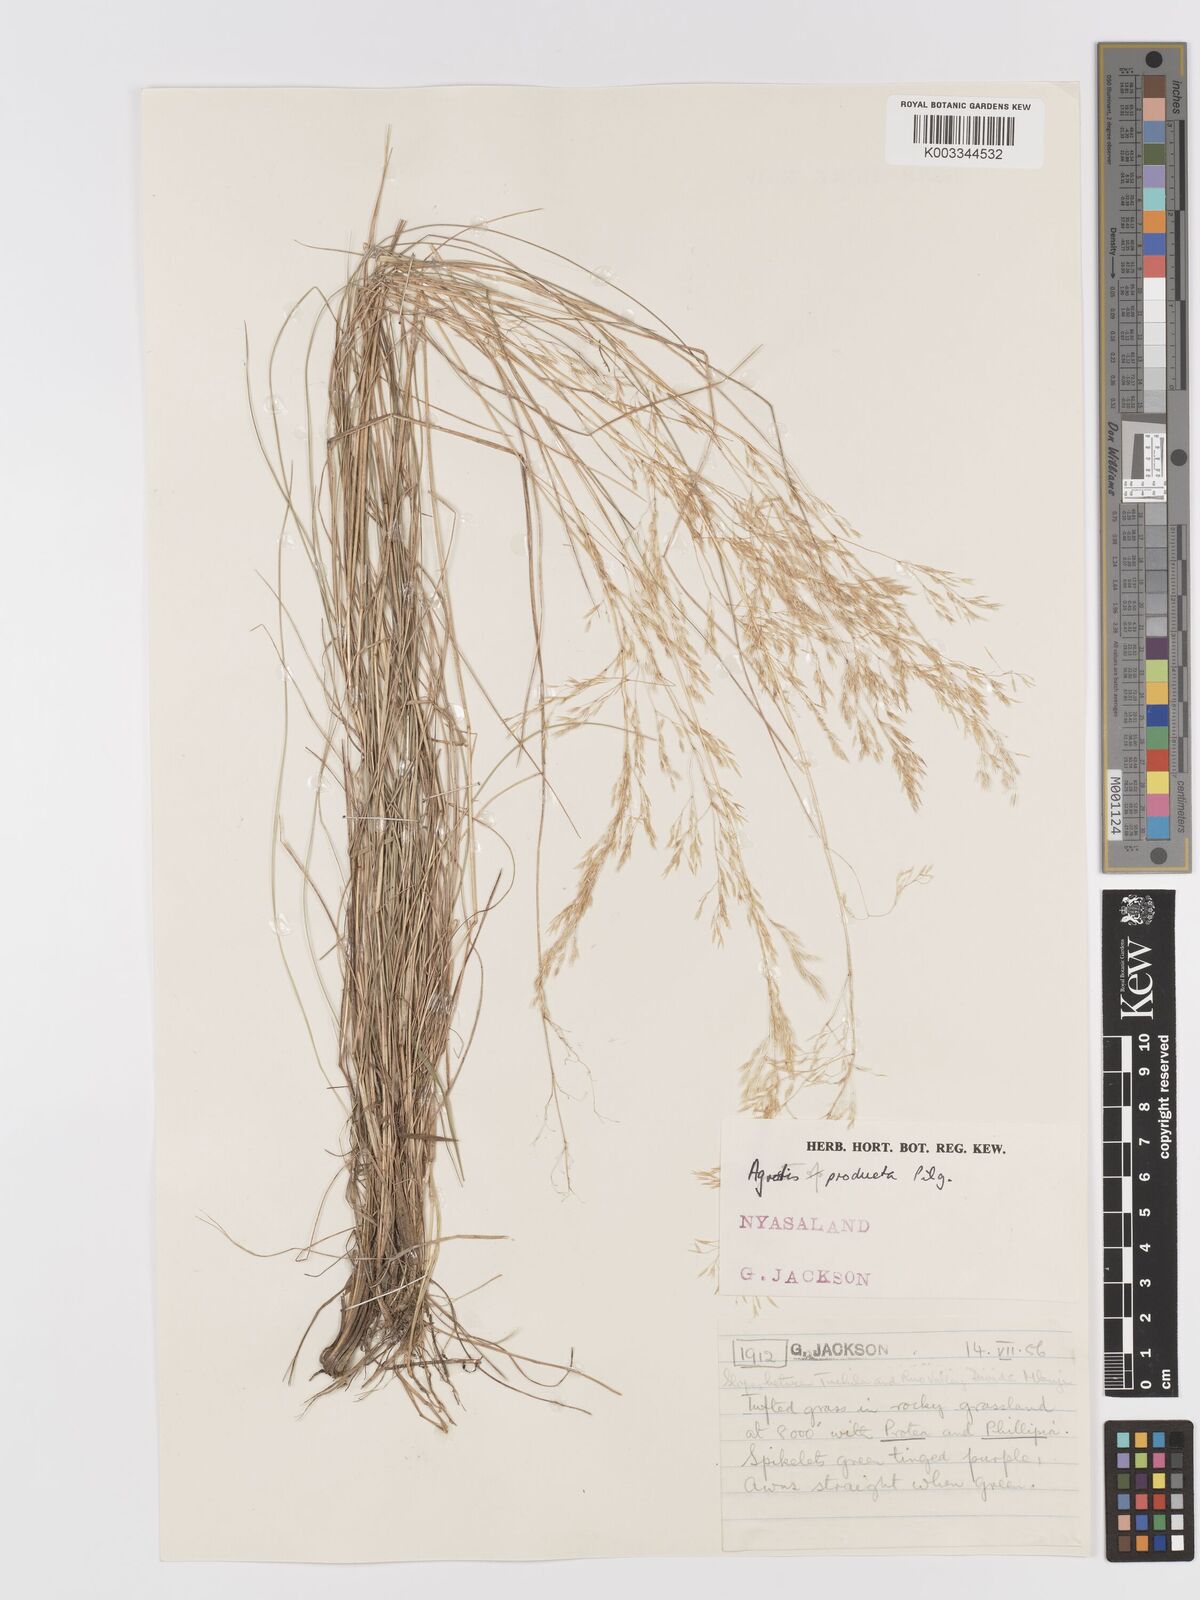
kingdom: Plantae
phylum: Tracheophyta
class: Liliopsida
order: Poales
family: Poaceae
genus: Agrostis
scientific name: Agrostis producta
